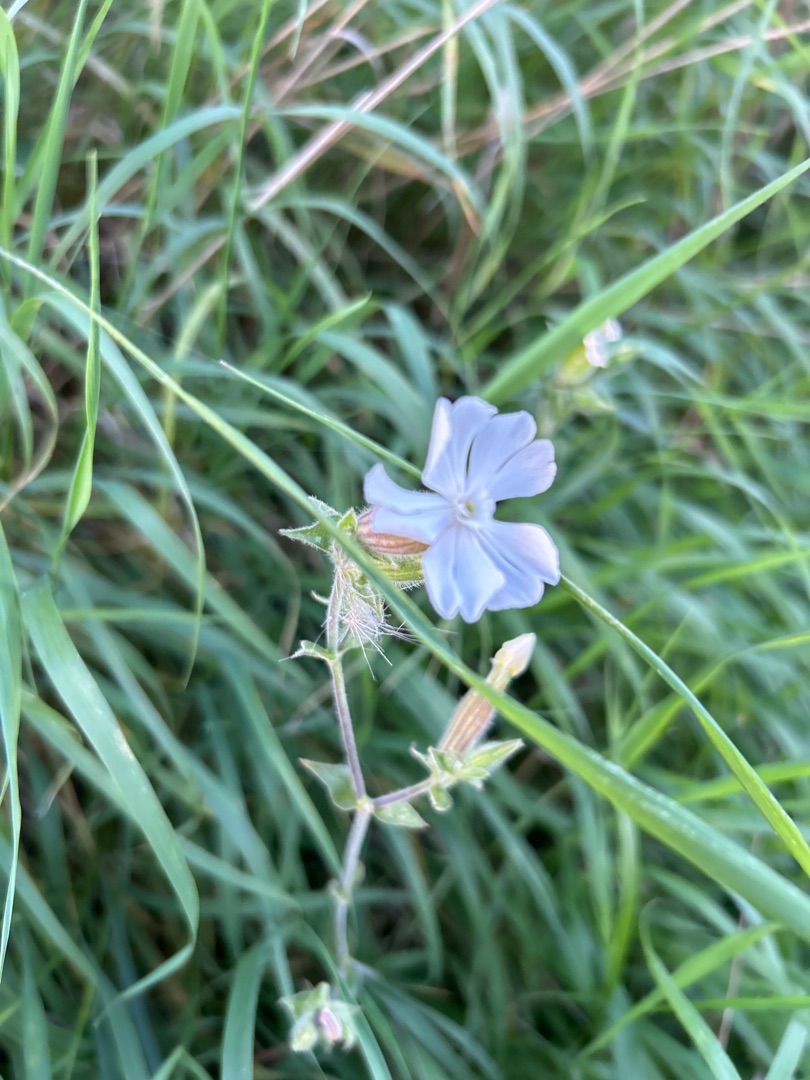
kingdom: Plantae
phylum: Tracheophyta
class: Magnoliopsida
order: Caryophyllales
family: Caryophyllaceae
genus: Silene
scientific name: Silene latifolia
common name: Aftenpragtstjerne
